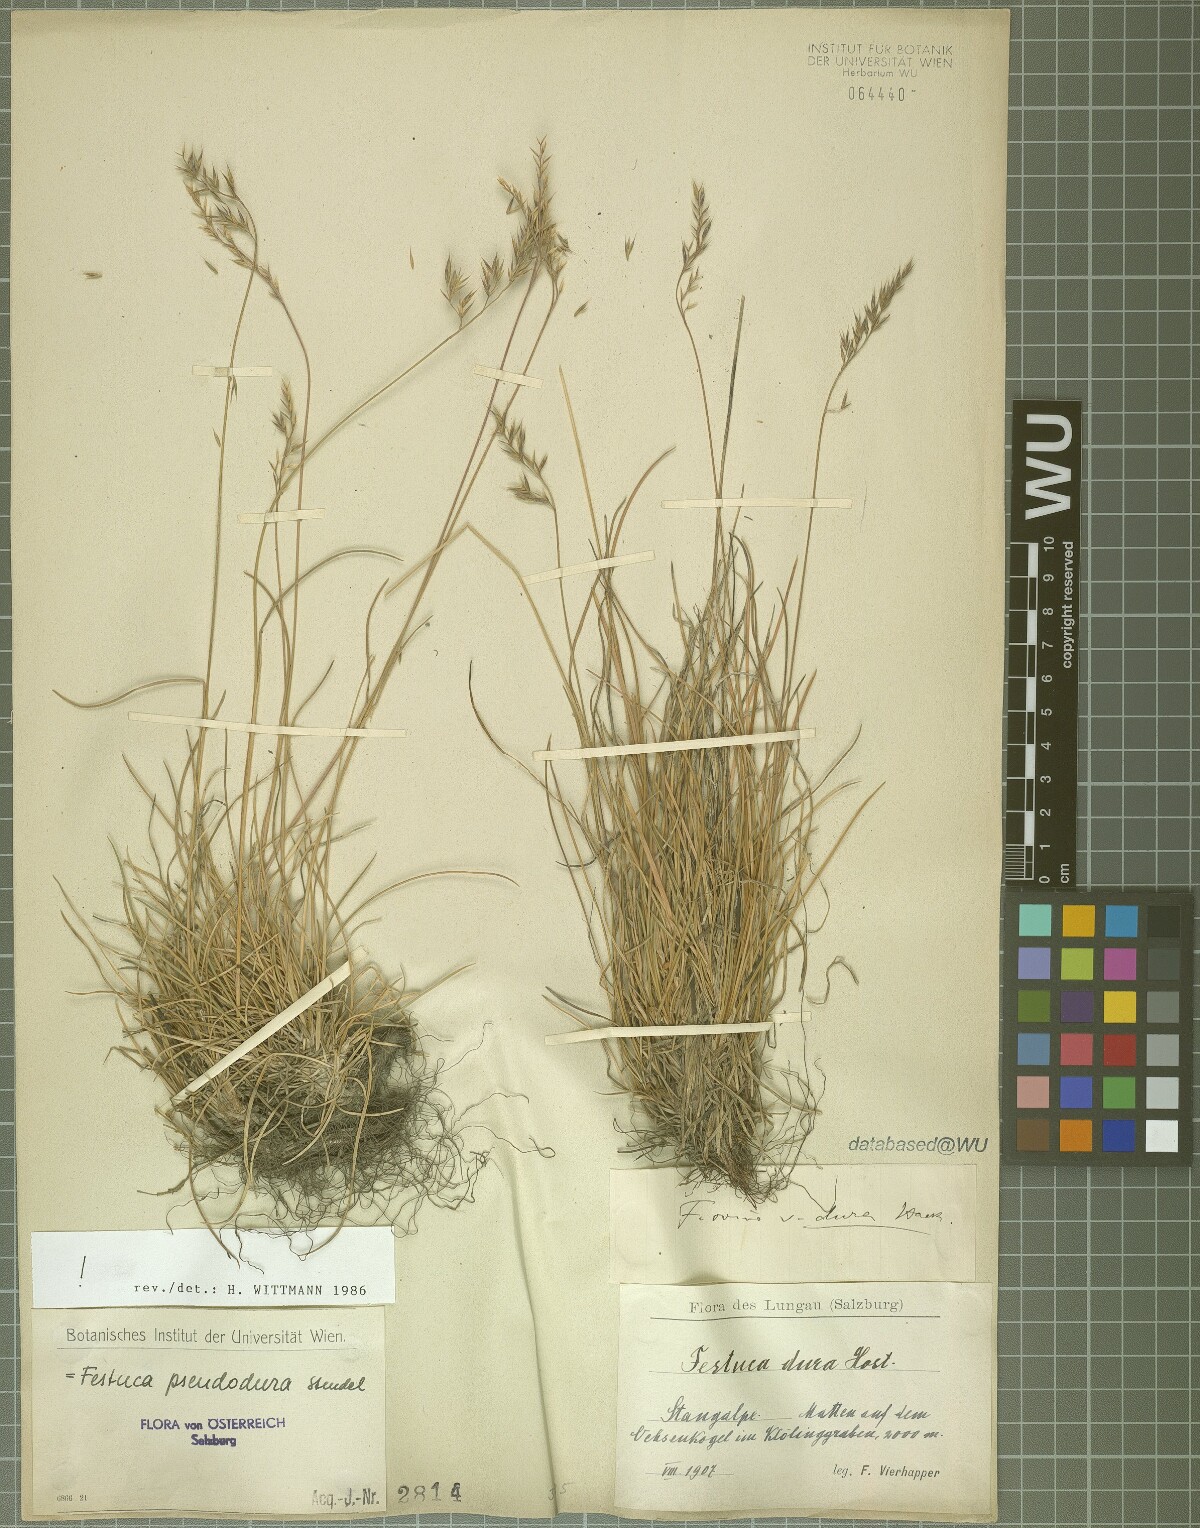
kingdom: Plantae
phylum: Tracheophyta
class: Liliopsida
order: Poales
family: Poaceae
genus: Festuca
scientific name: Festuca pseudodura
